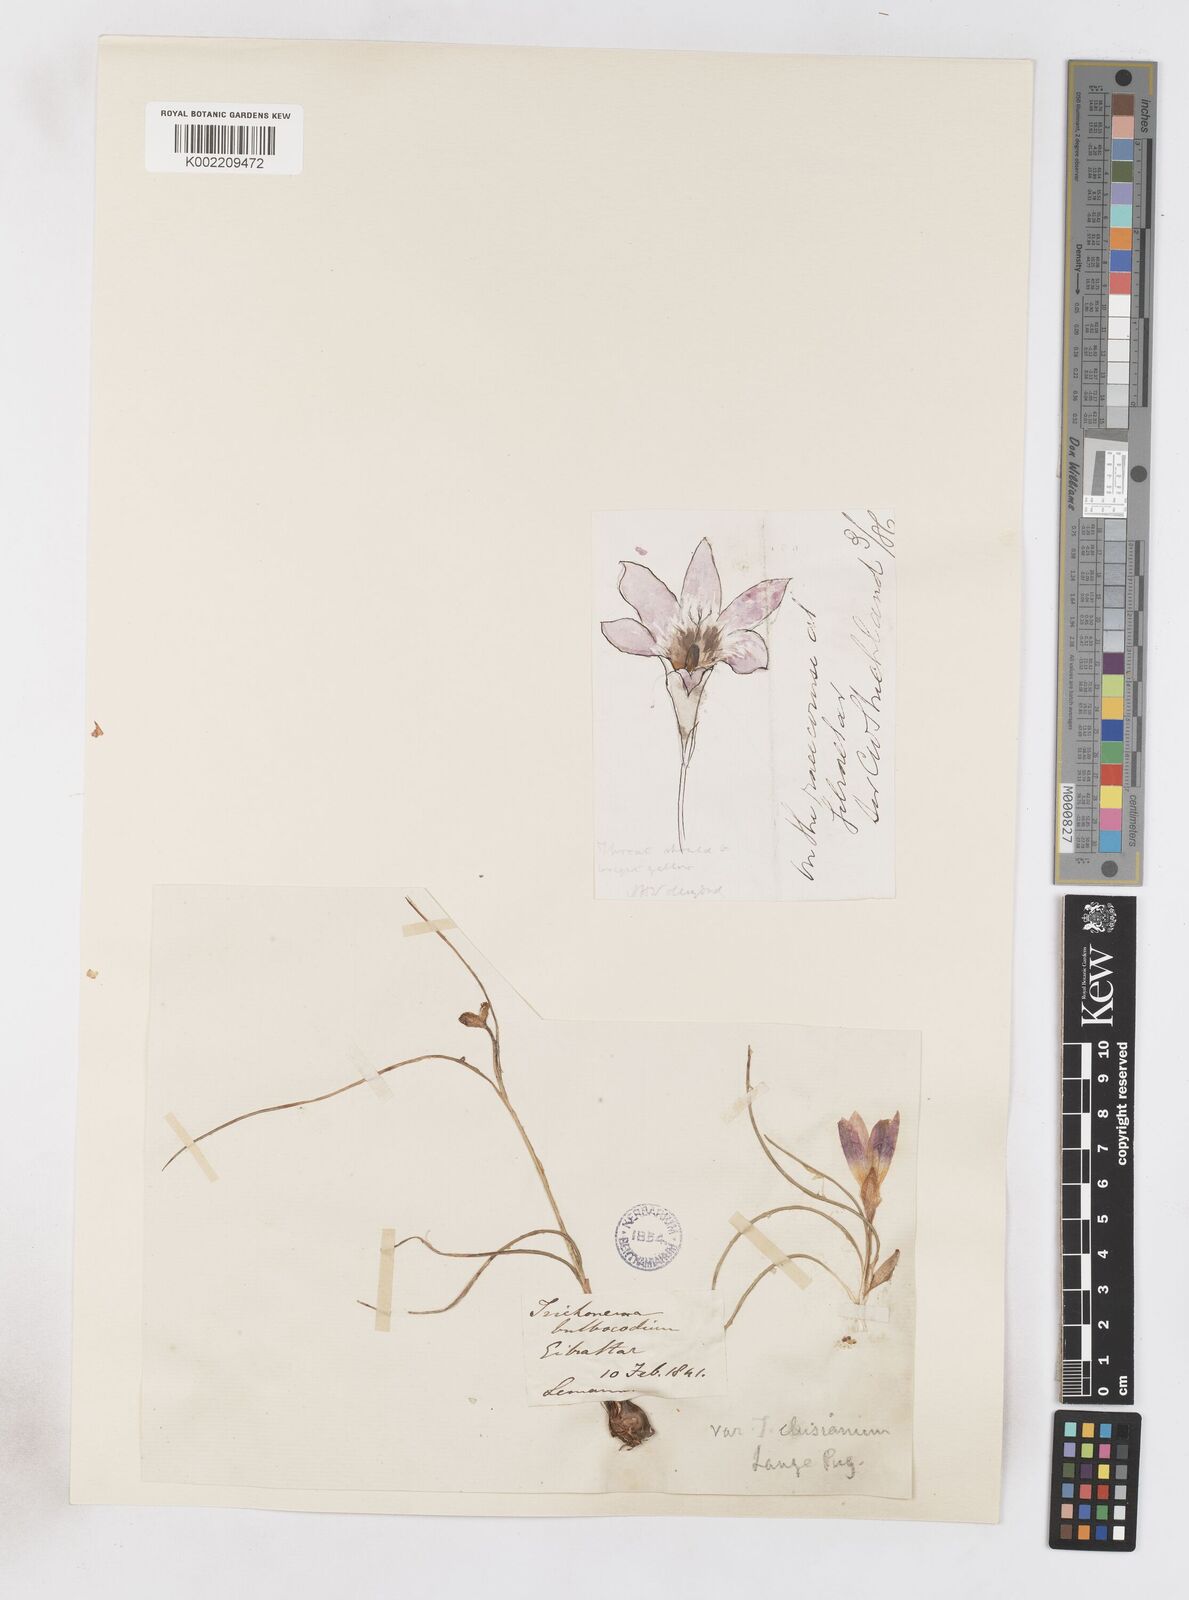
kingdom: Plantae
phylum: Tracheophyta
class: Liliopsida
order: Asparagales
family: Iridaceae
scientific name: Iridaceae
